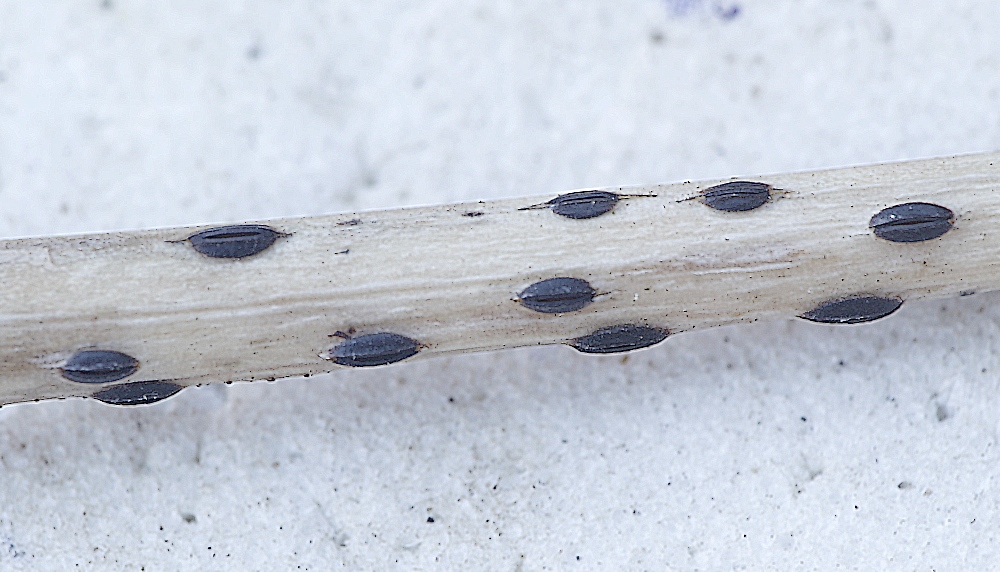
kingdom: Fungi
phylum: Ascomycota
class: Leotiomycetes
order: Rhytismatales
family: Rhytismataceae
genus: Lophodermium
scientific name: Lophodermium culmigenum
